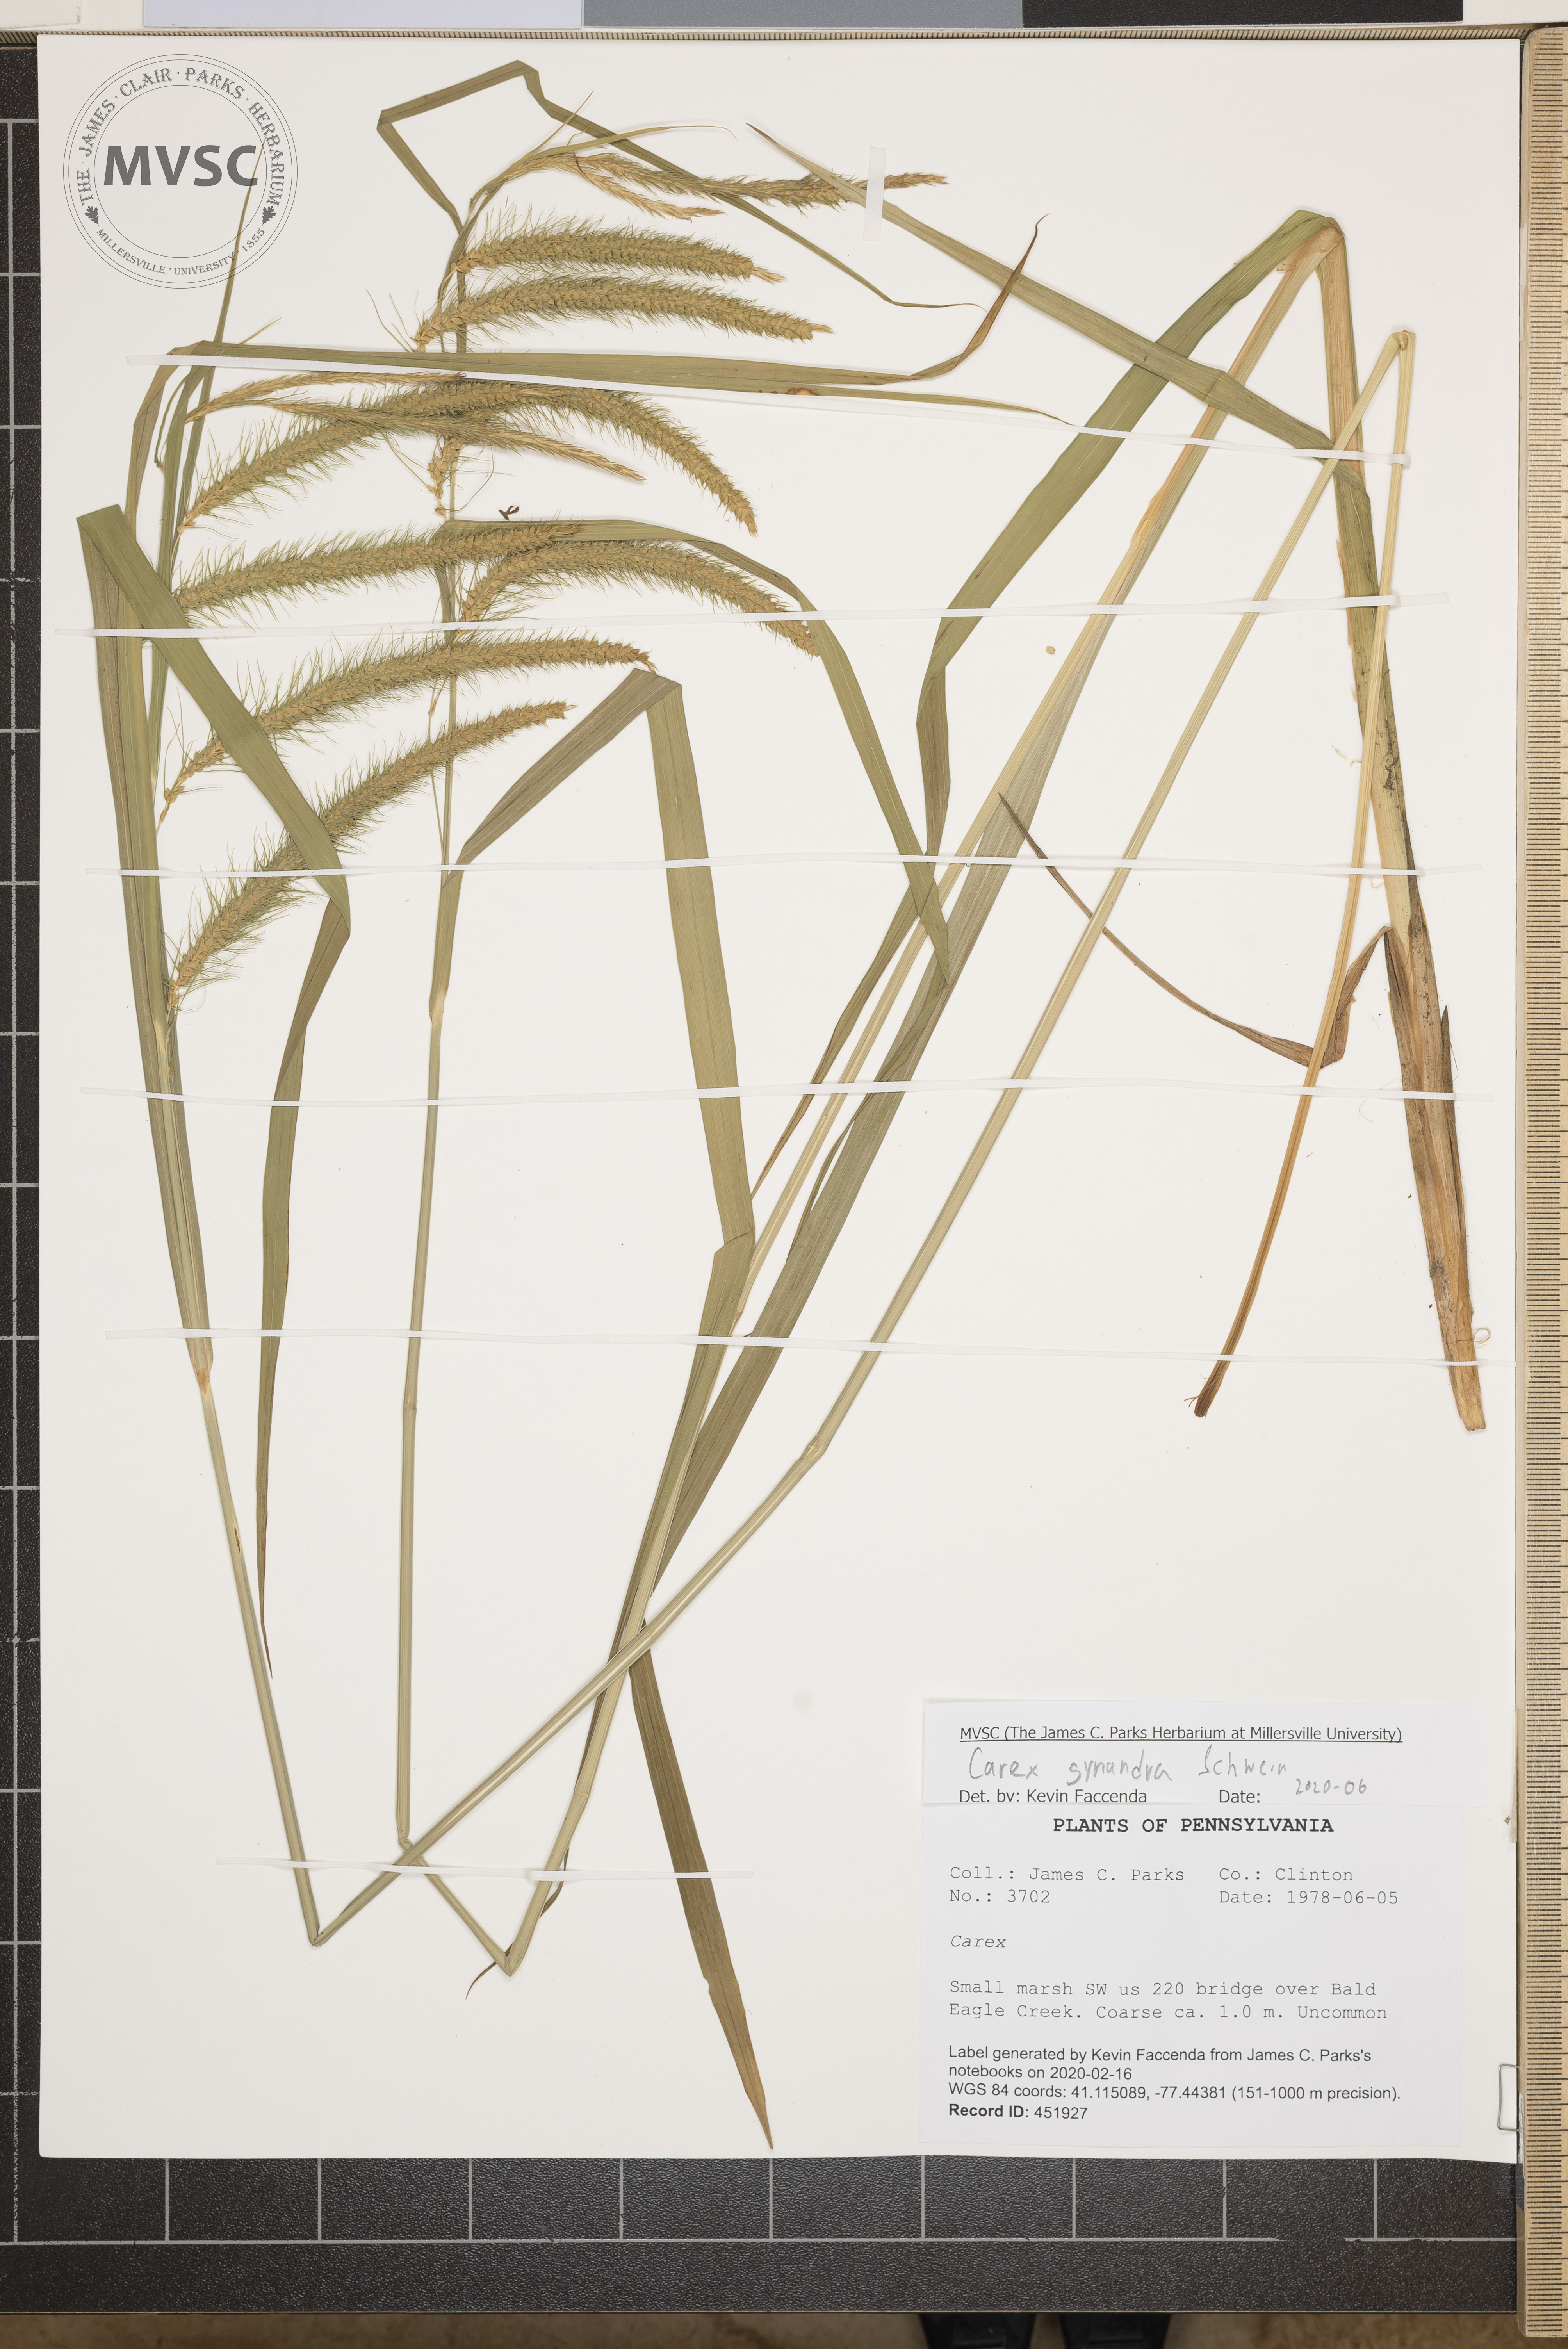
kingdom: Plantae
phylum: Tracheophyta
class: Liliopsida
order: Poales
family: Cyperaceae
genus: Carex
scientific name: Carex gynandra
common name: Nodding sedge
